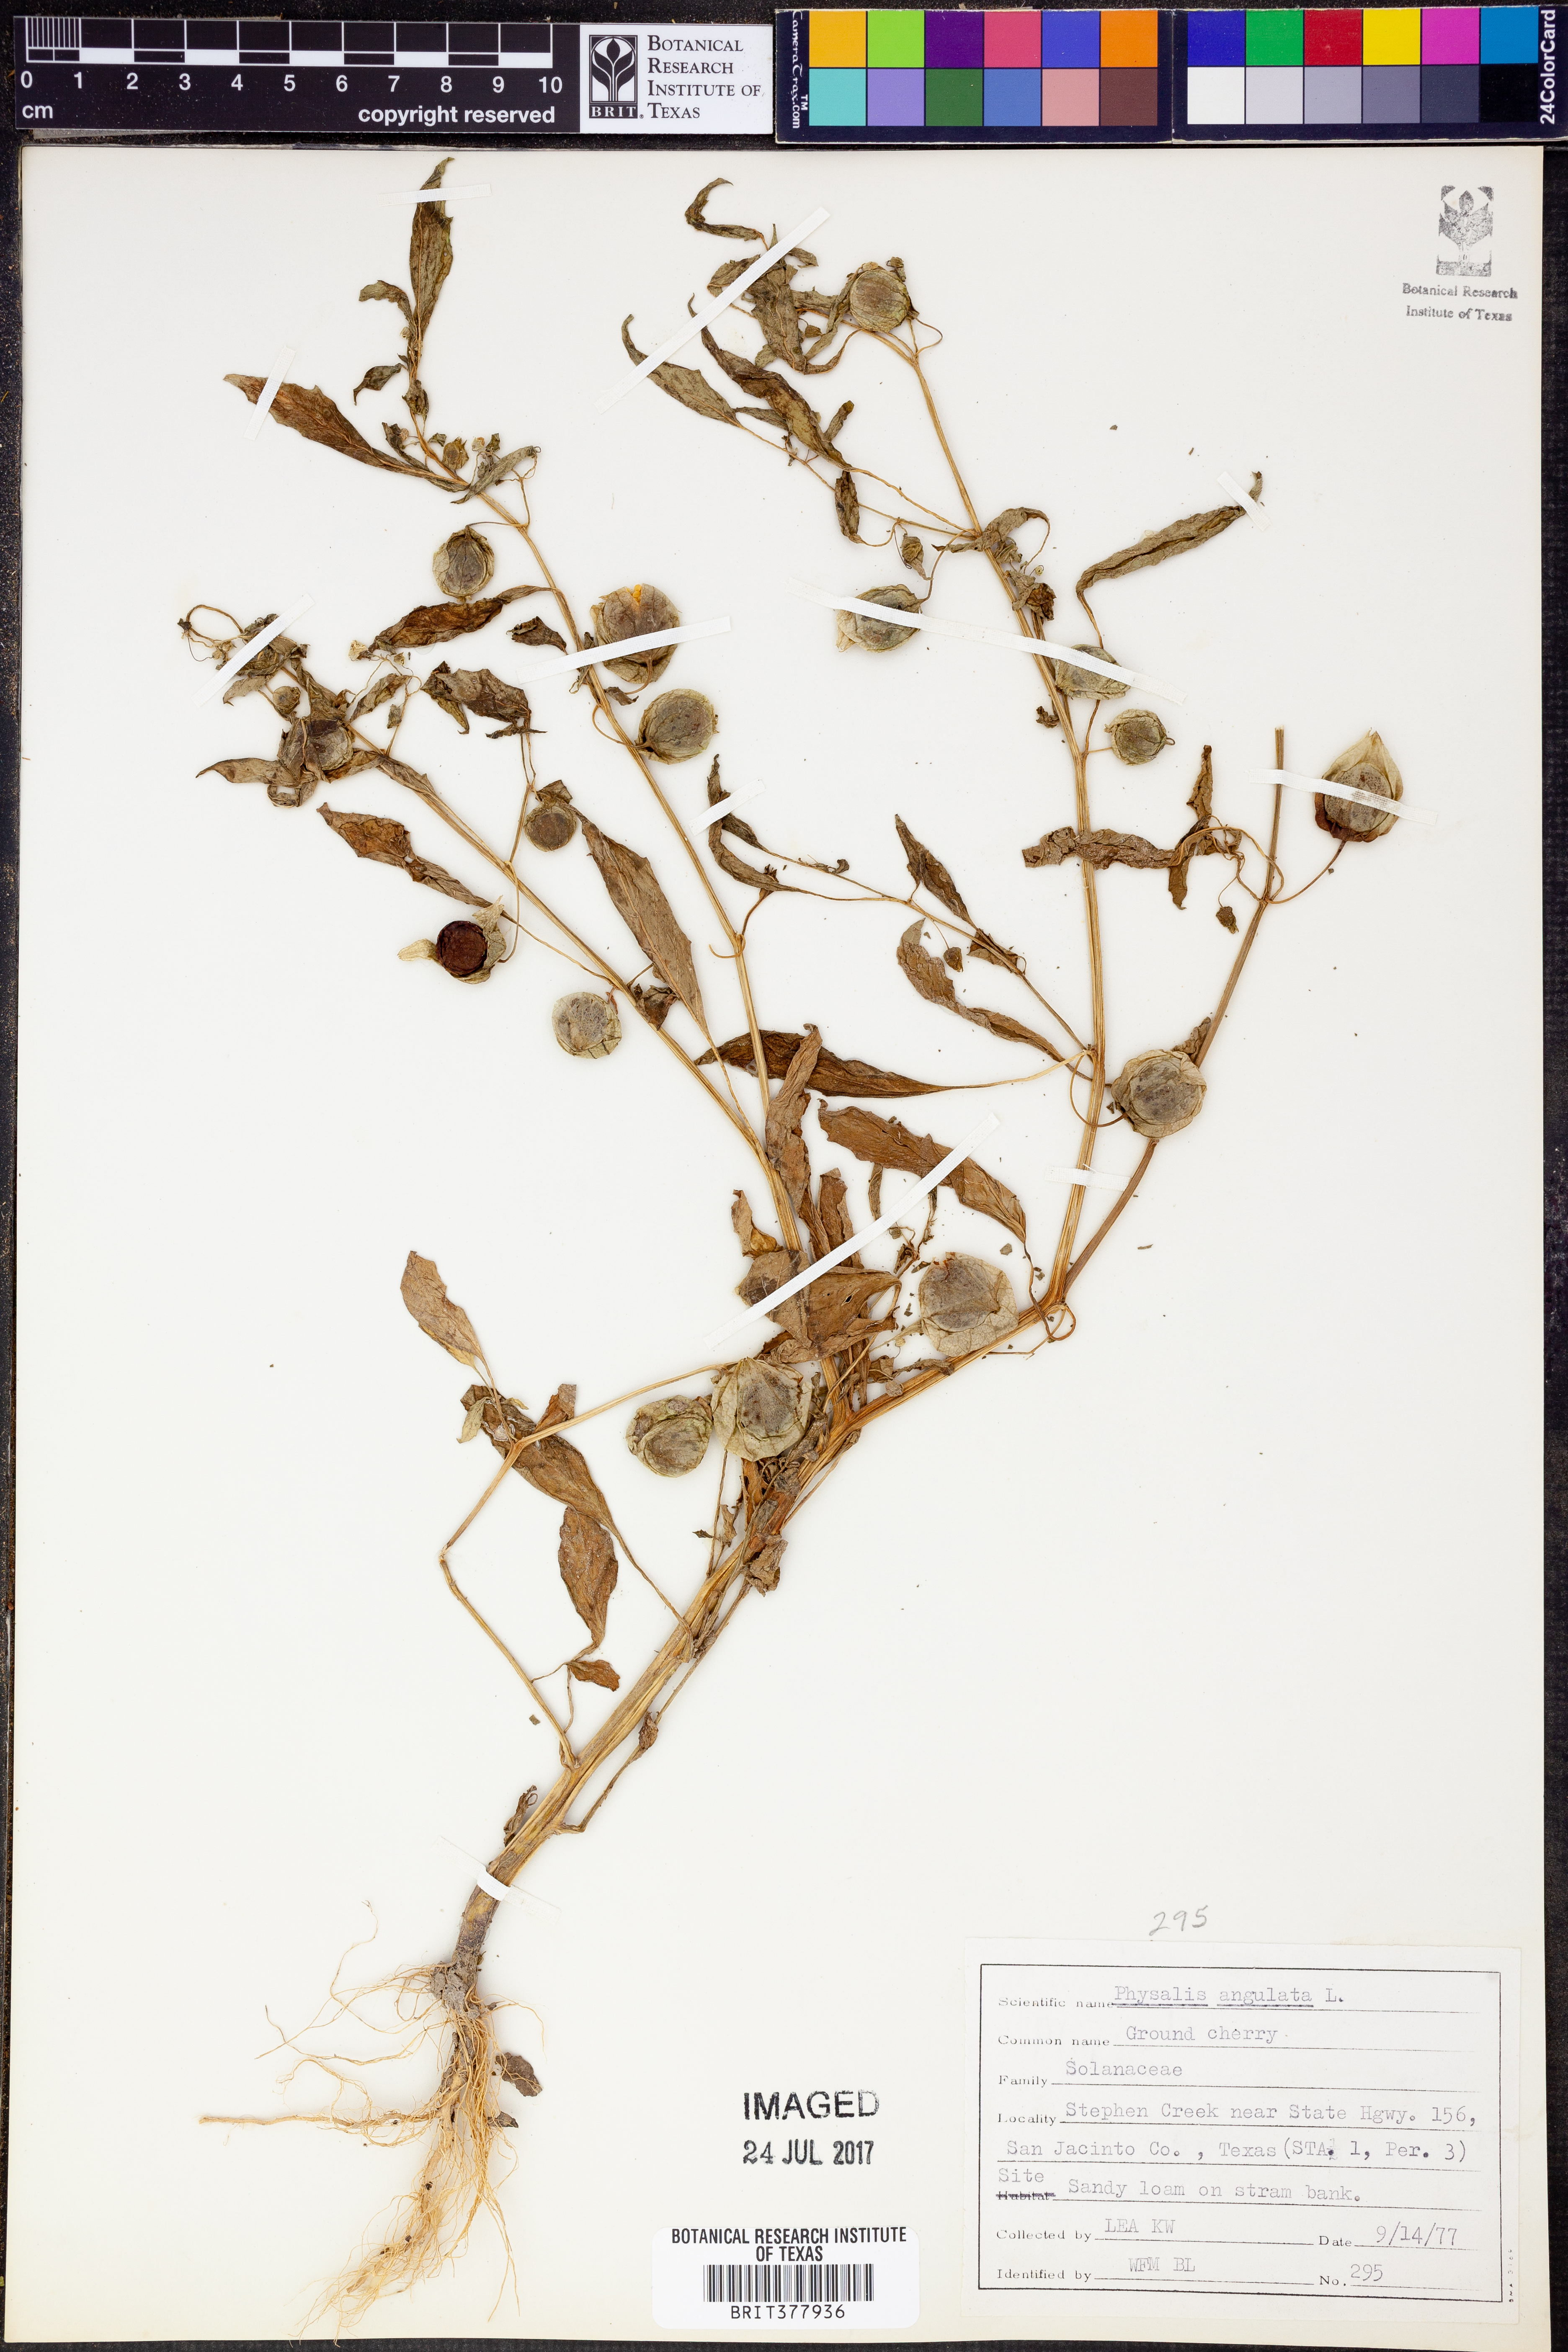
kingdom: Plantae
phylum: Tracheophyta
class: Magnoliopsida
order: Solanales
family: Solanaceae
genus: Physalis
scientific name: Physalis angulata
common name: Angular winter-cherry
